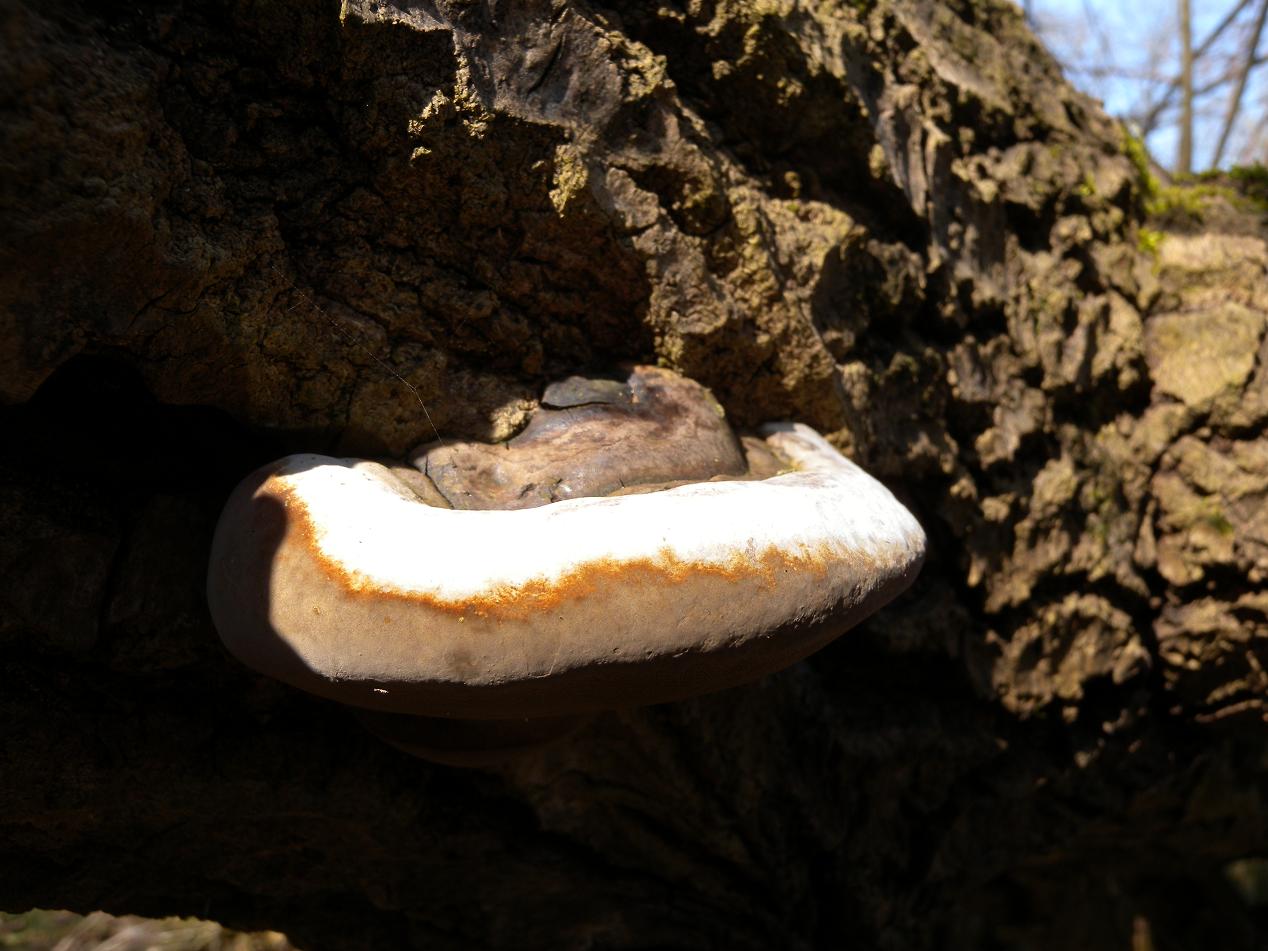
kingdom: Fungi
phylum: Basidiomycota
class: Agaricomycetes
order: Hymenochaetales
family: Hymenochaetaceae
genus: Phellinus
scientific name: Phellinus populicola
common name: poppel-ildporesvamp
